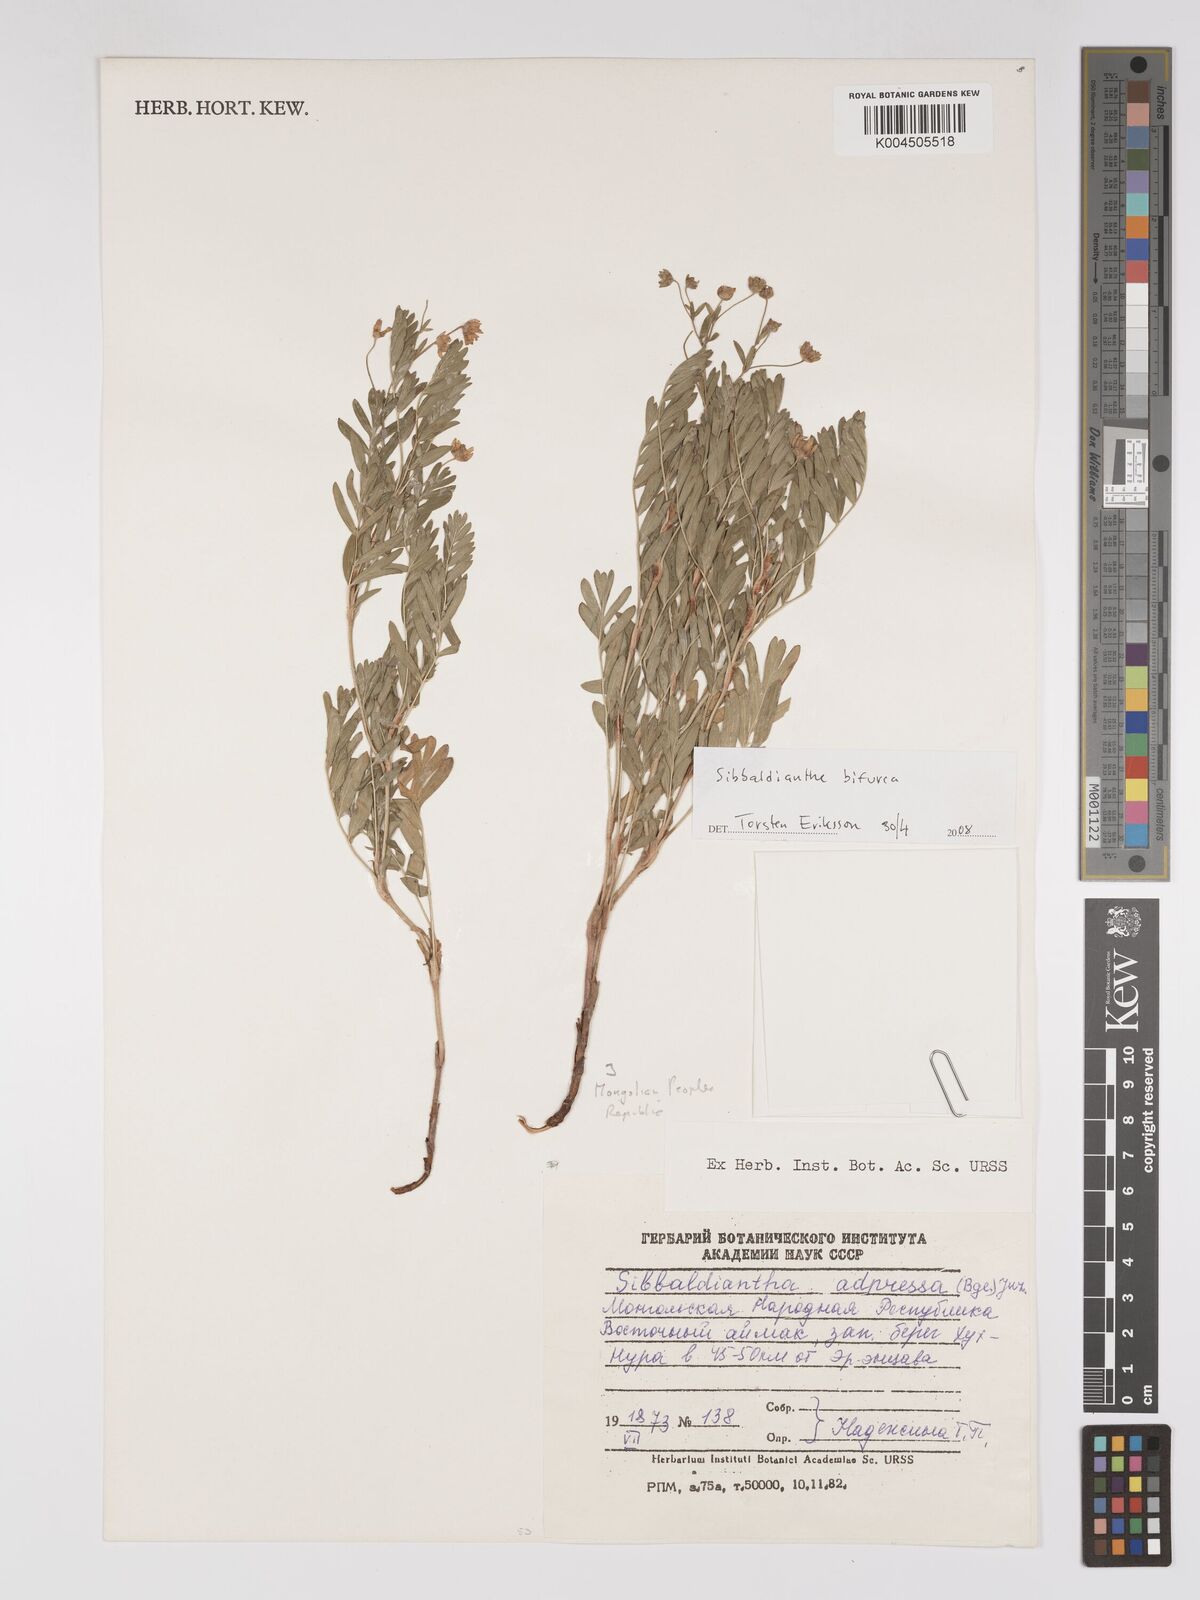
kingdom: Plantae
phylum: Tracheophyta
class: Magnoliopsida
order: Rosales
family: Rosaceae
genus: Sibbaldianthe
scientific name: Sibbaldianthe bifurca
